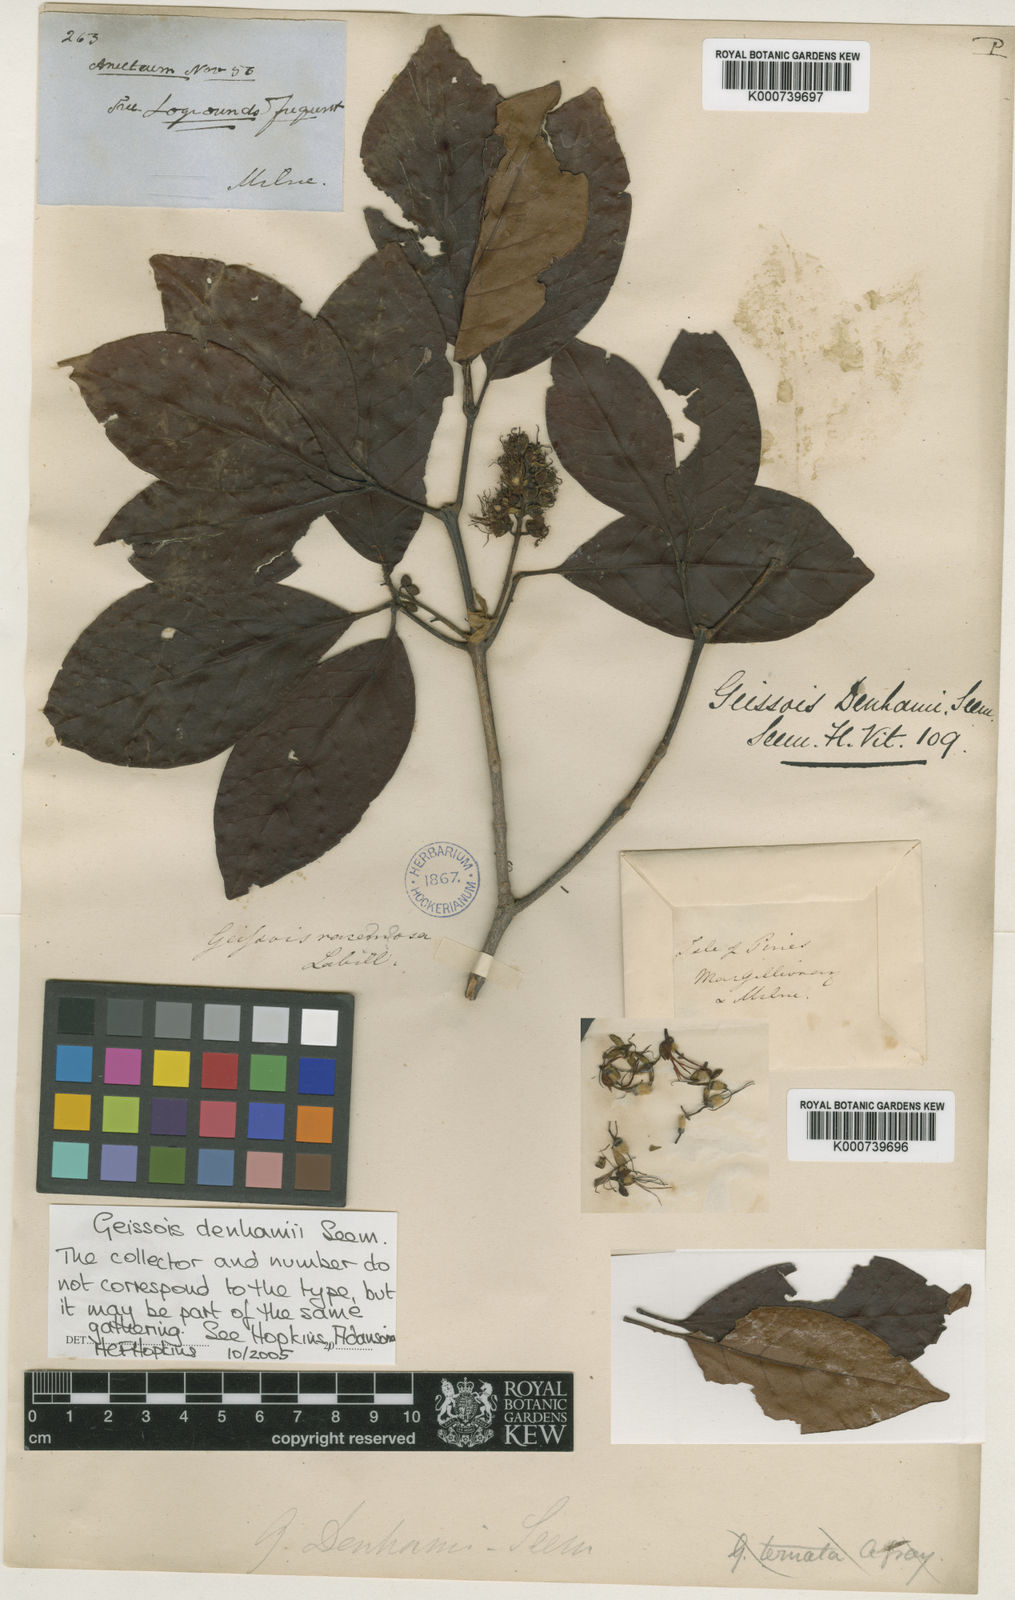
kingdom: Plantae
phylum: Tracheophyta
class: Magnoliopsida
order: Oxalidales
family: Cunoniaceae
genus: Geissois
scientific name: Geissois denhamii
